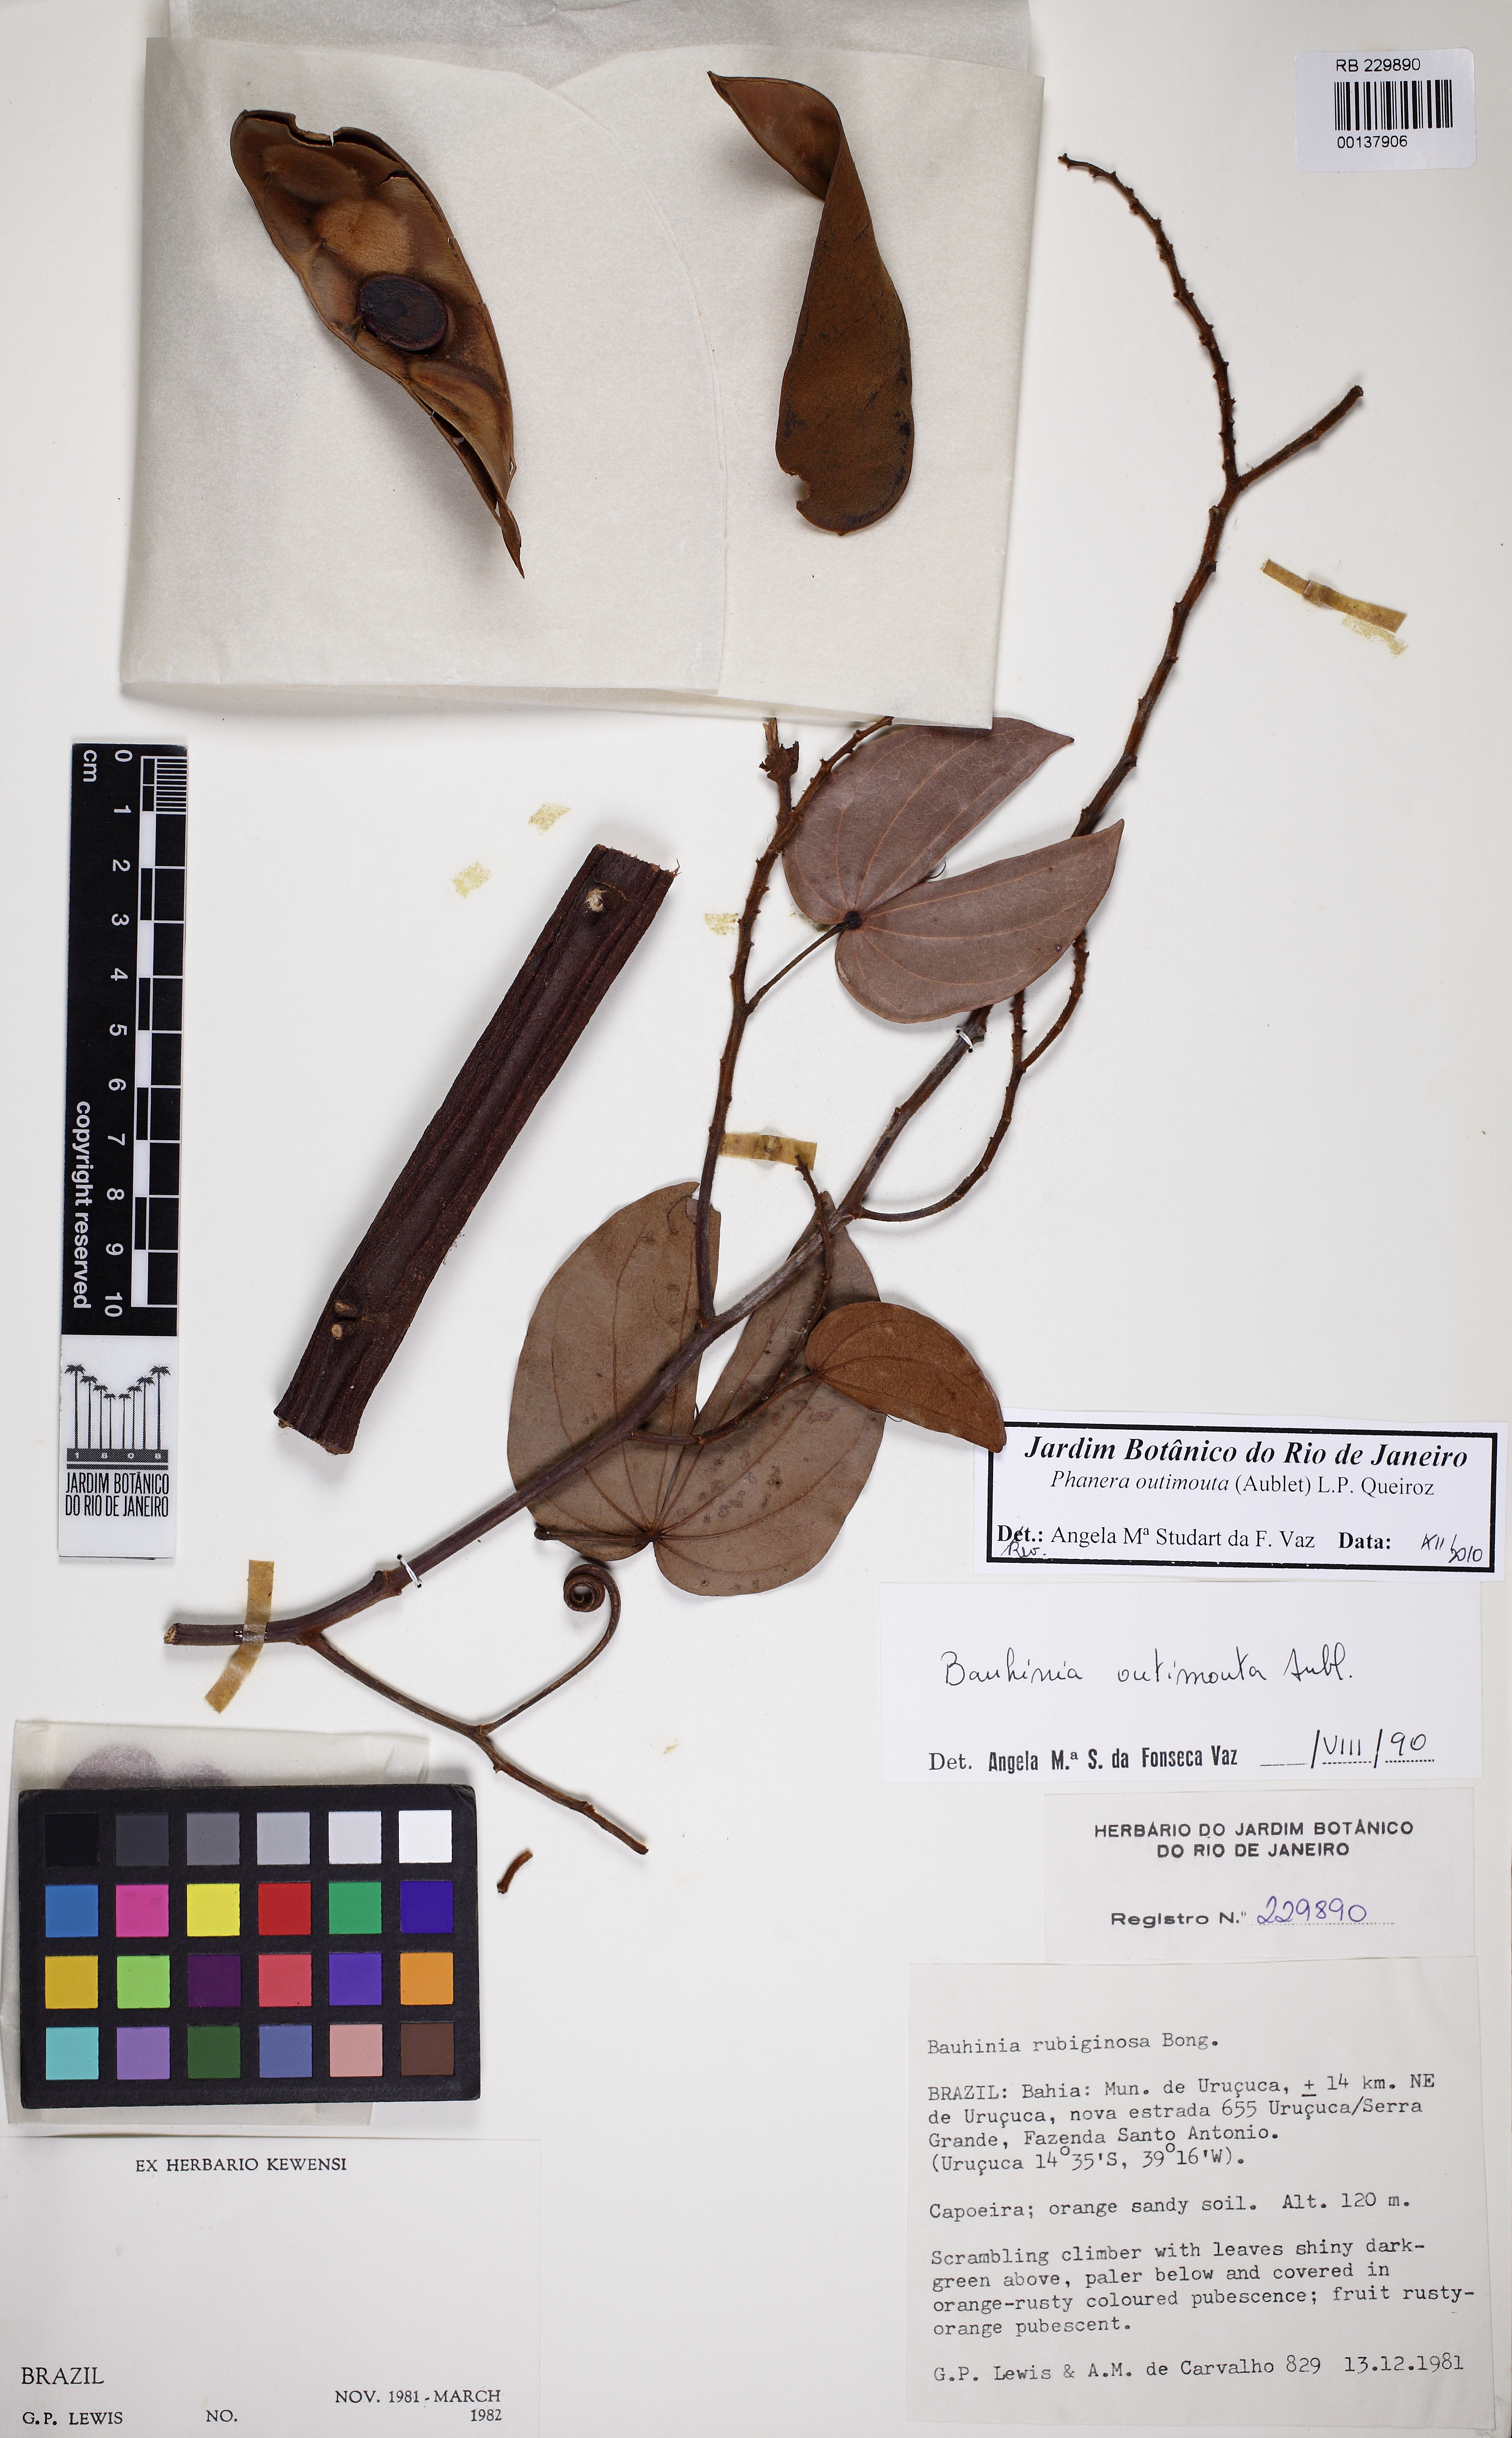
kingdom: Plantae
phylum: Tracheophyta
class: Magnoliopsida
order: Fabales
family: Fabaceae
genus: Schnella
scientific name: Schnella outimouta
